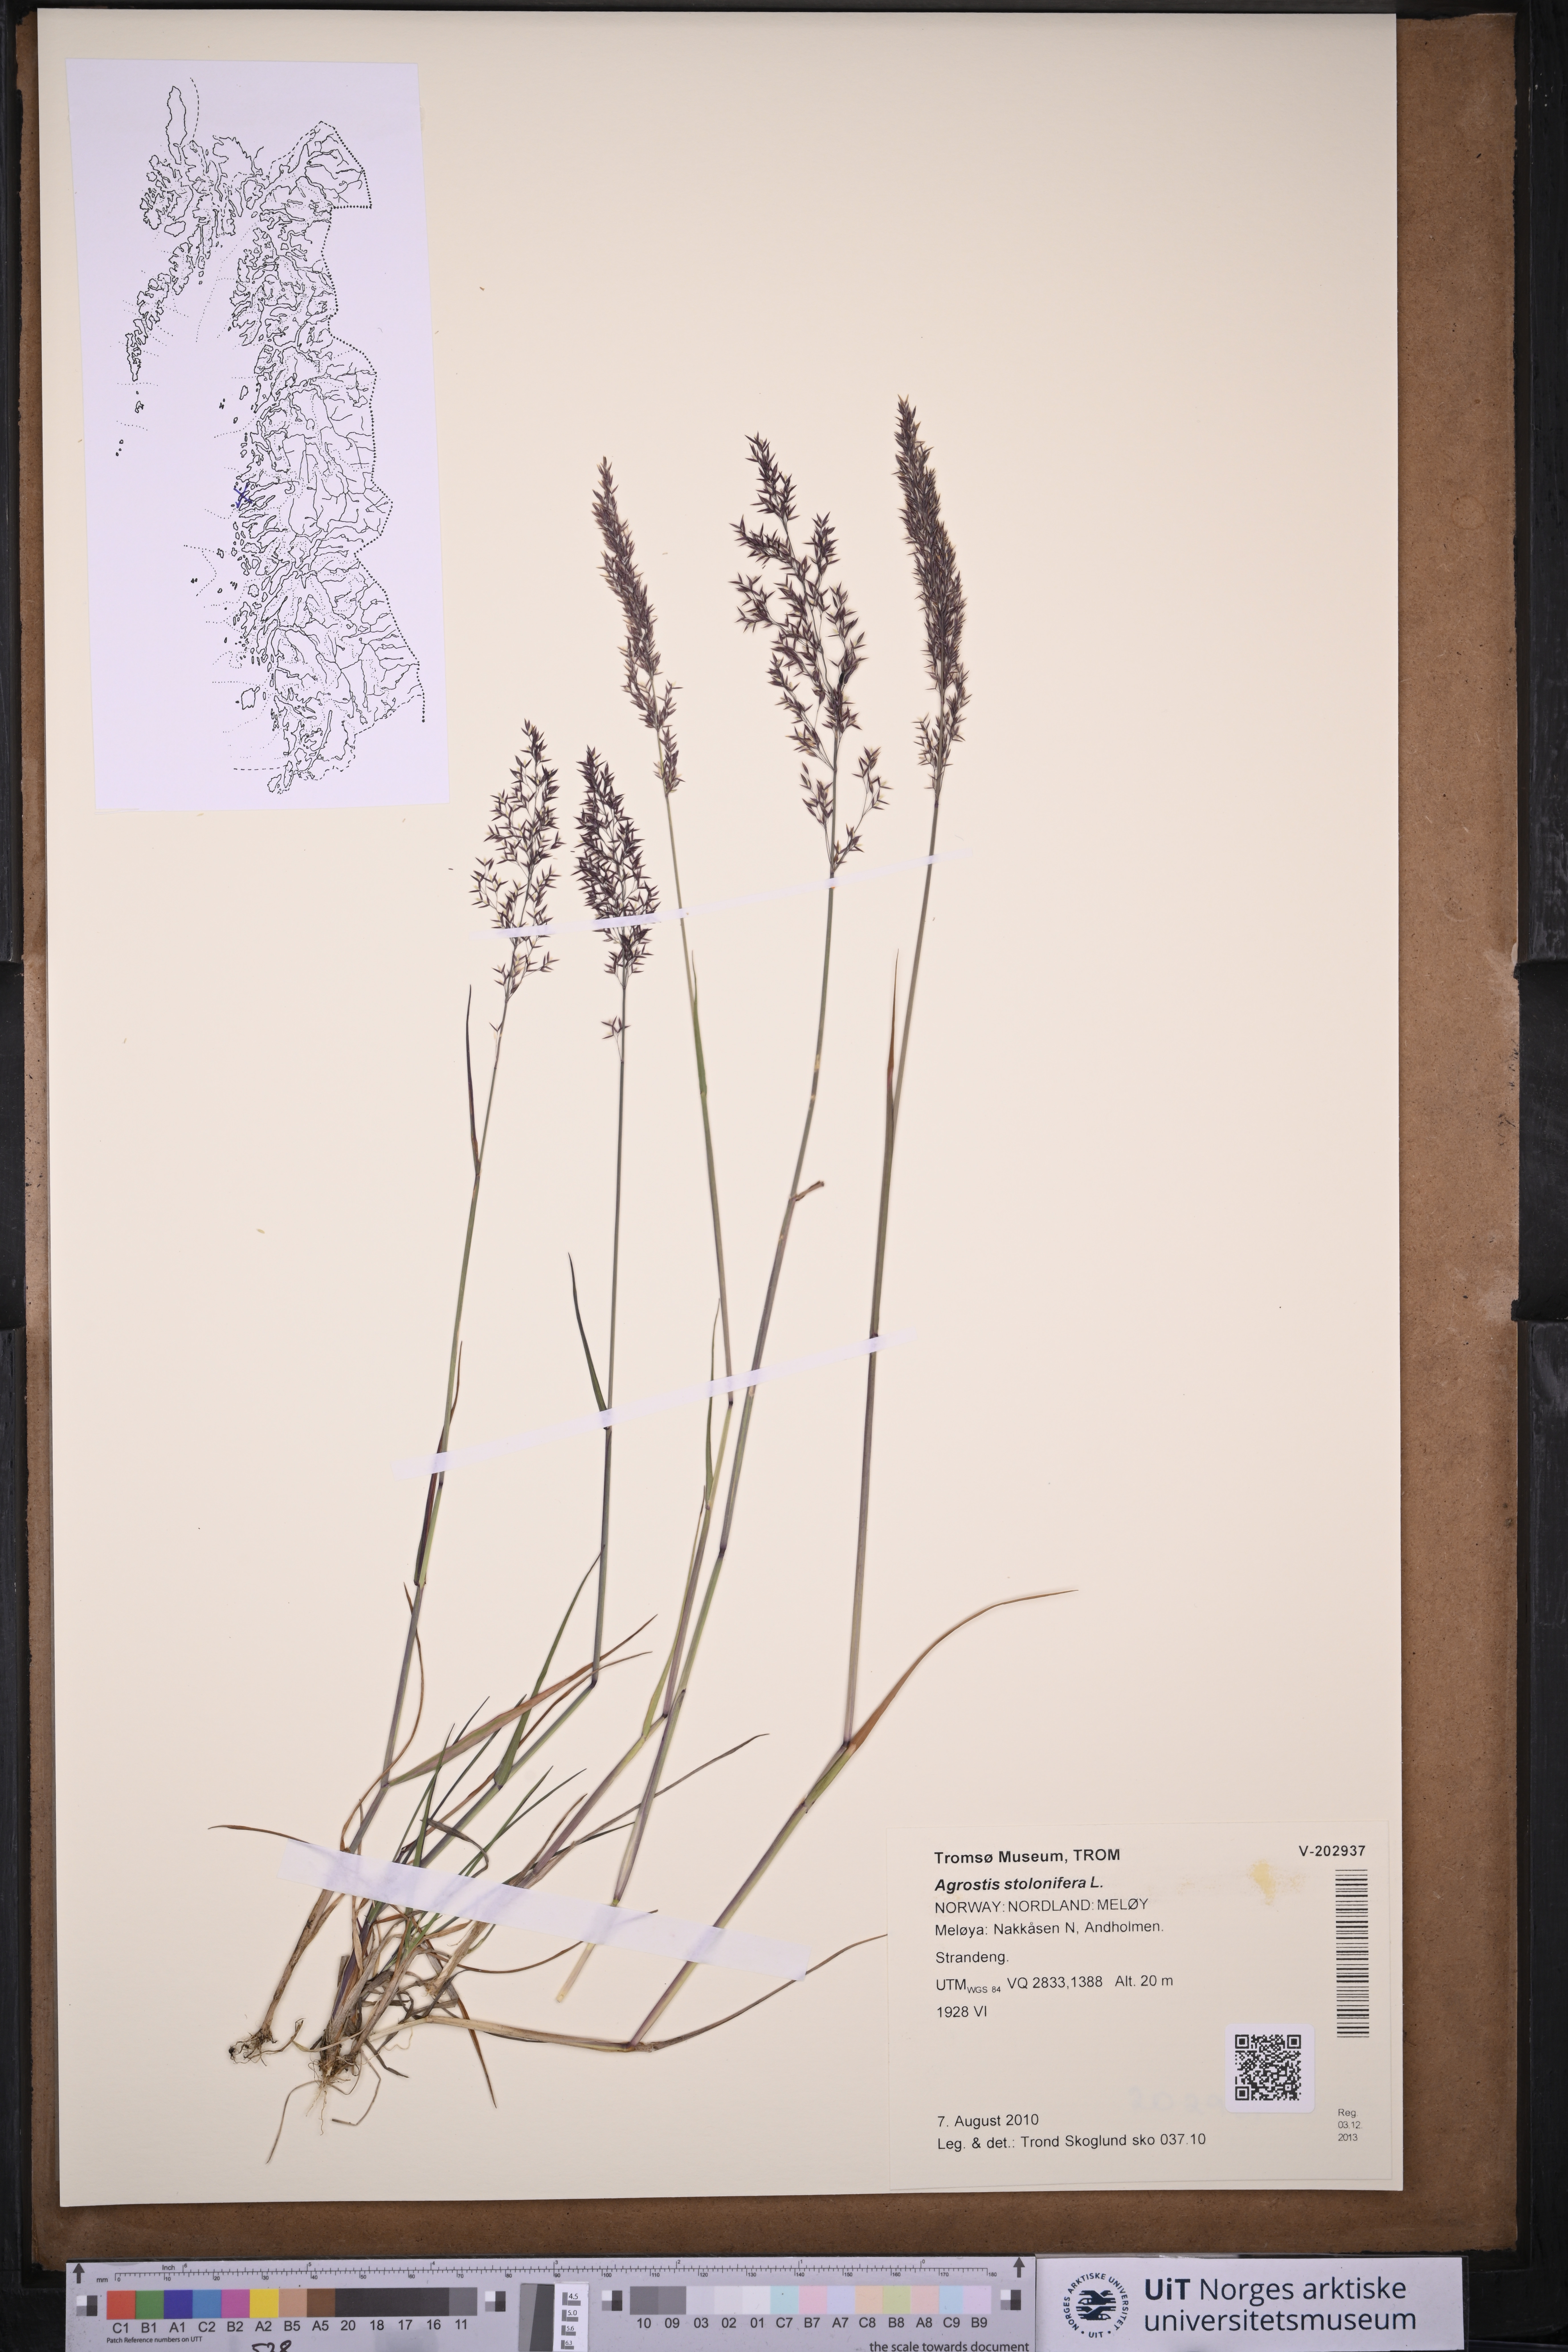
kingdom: Plantae
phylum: Tracheophyta
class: Liliopsida
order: Poales
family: Poaceae
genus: Agrostis
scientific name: Agrostis stolonifera
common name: Creeping bentgrass
